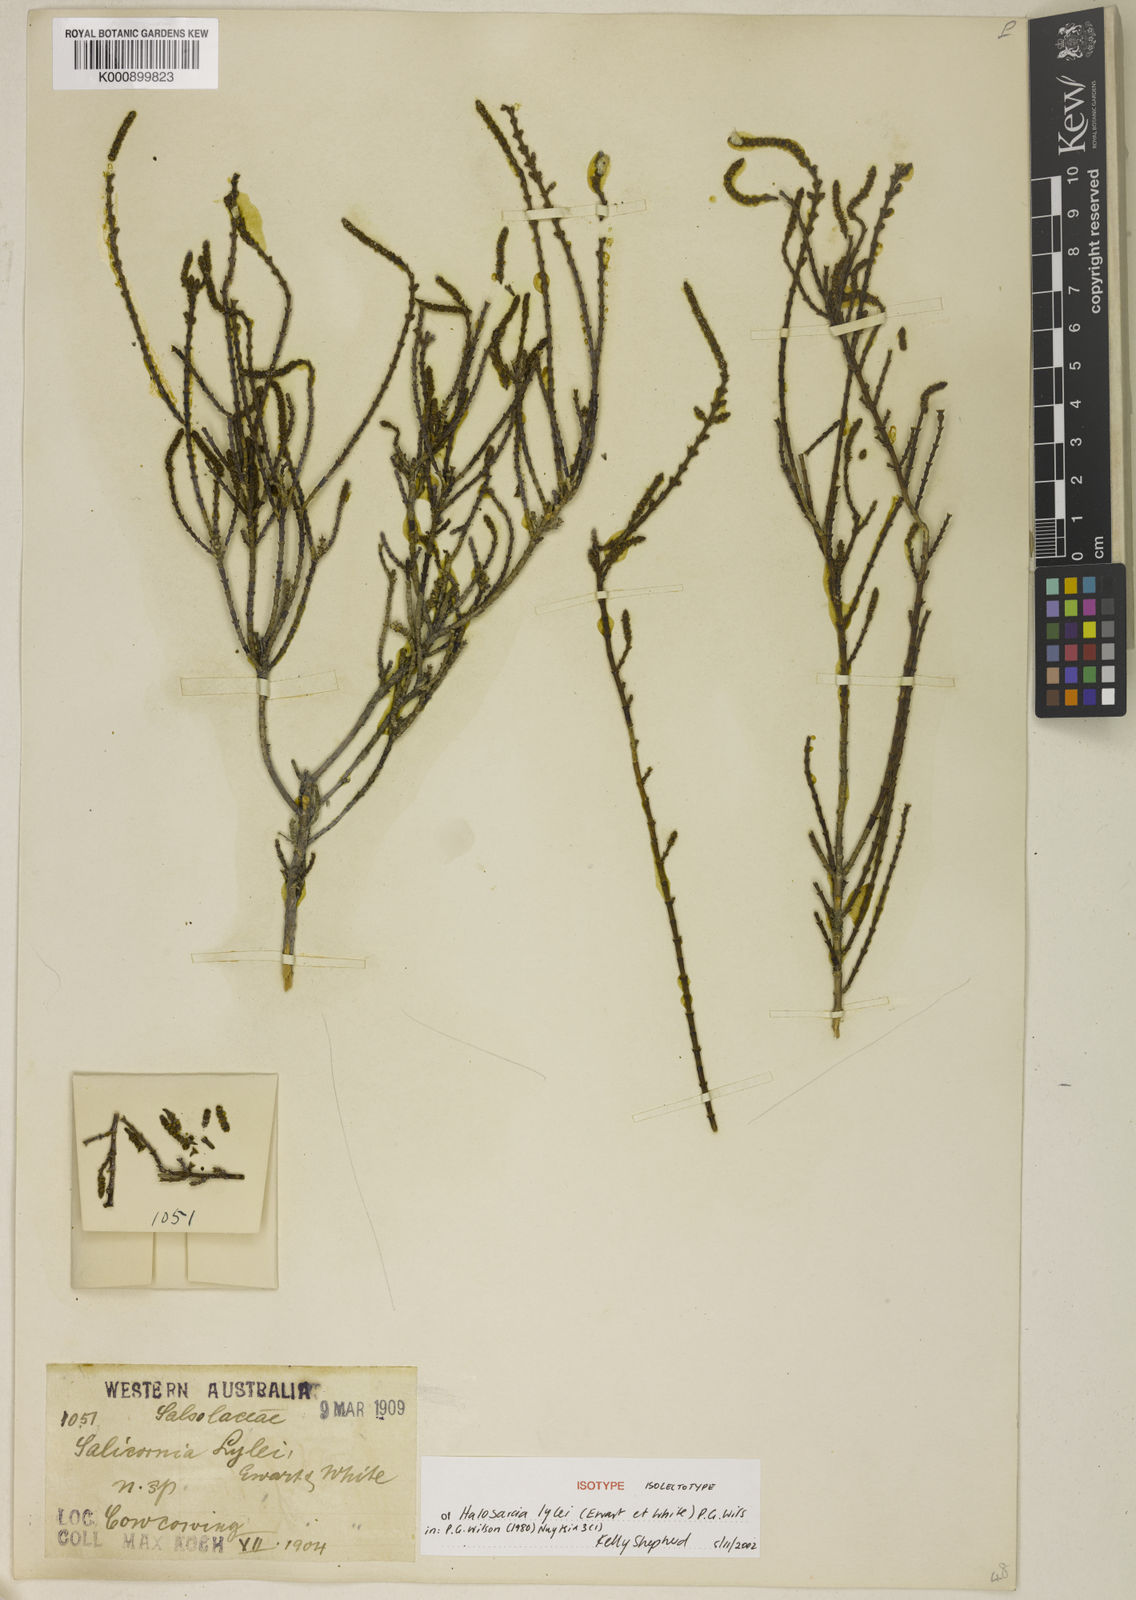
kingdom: Plantae
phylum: Tracheophyta
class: Magnoliopsida
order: Caryophyllales
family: Amaranthaceae
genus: Tecticornia
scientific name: Tecticornia lylei
